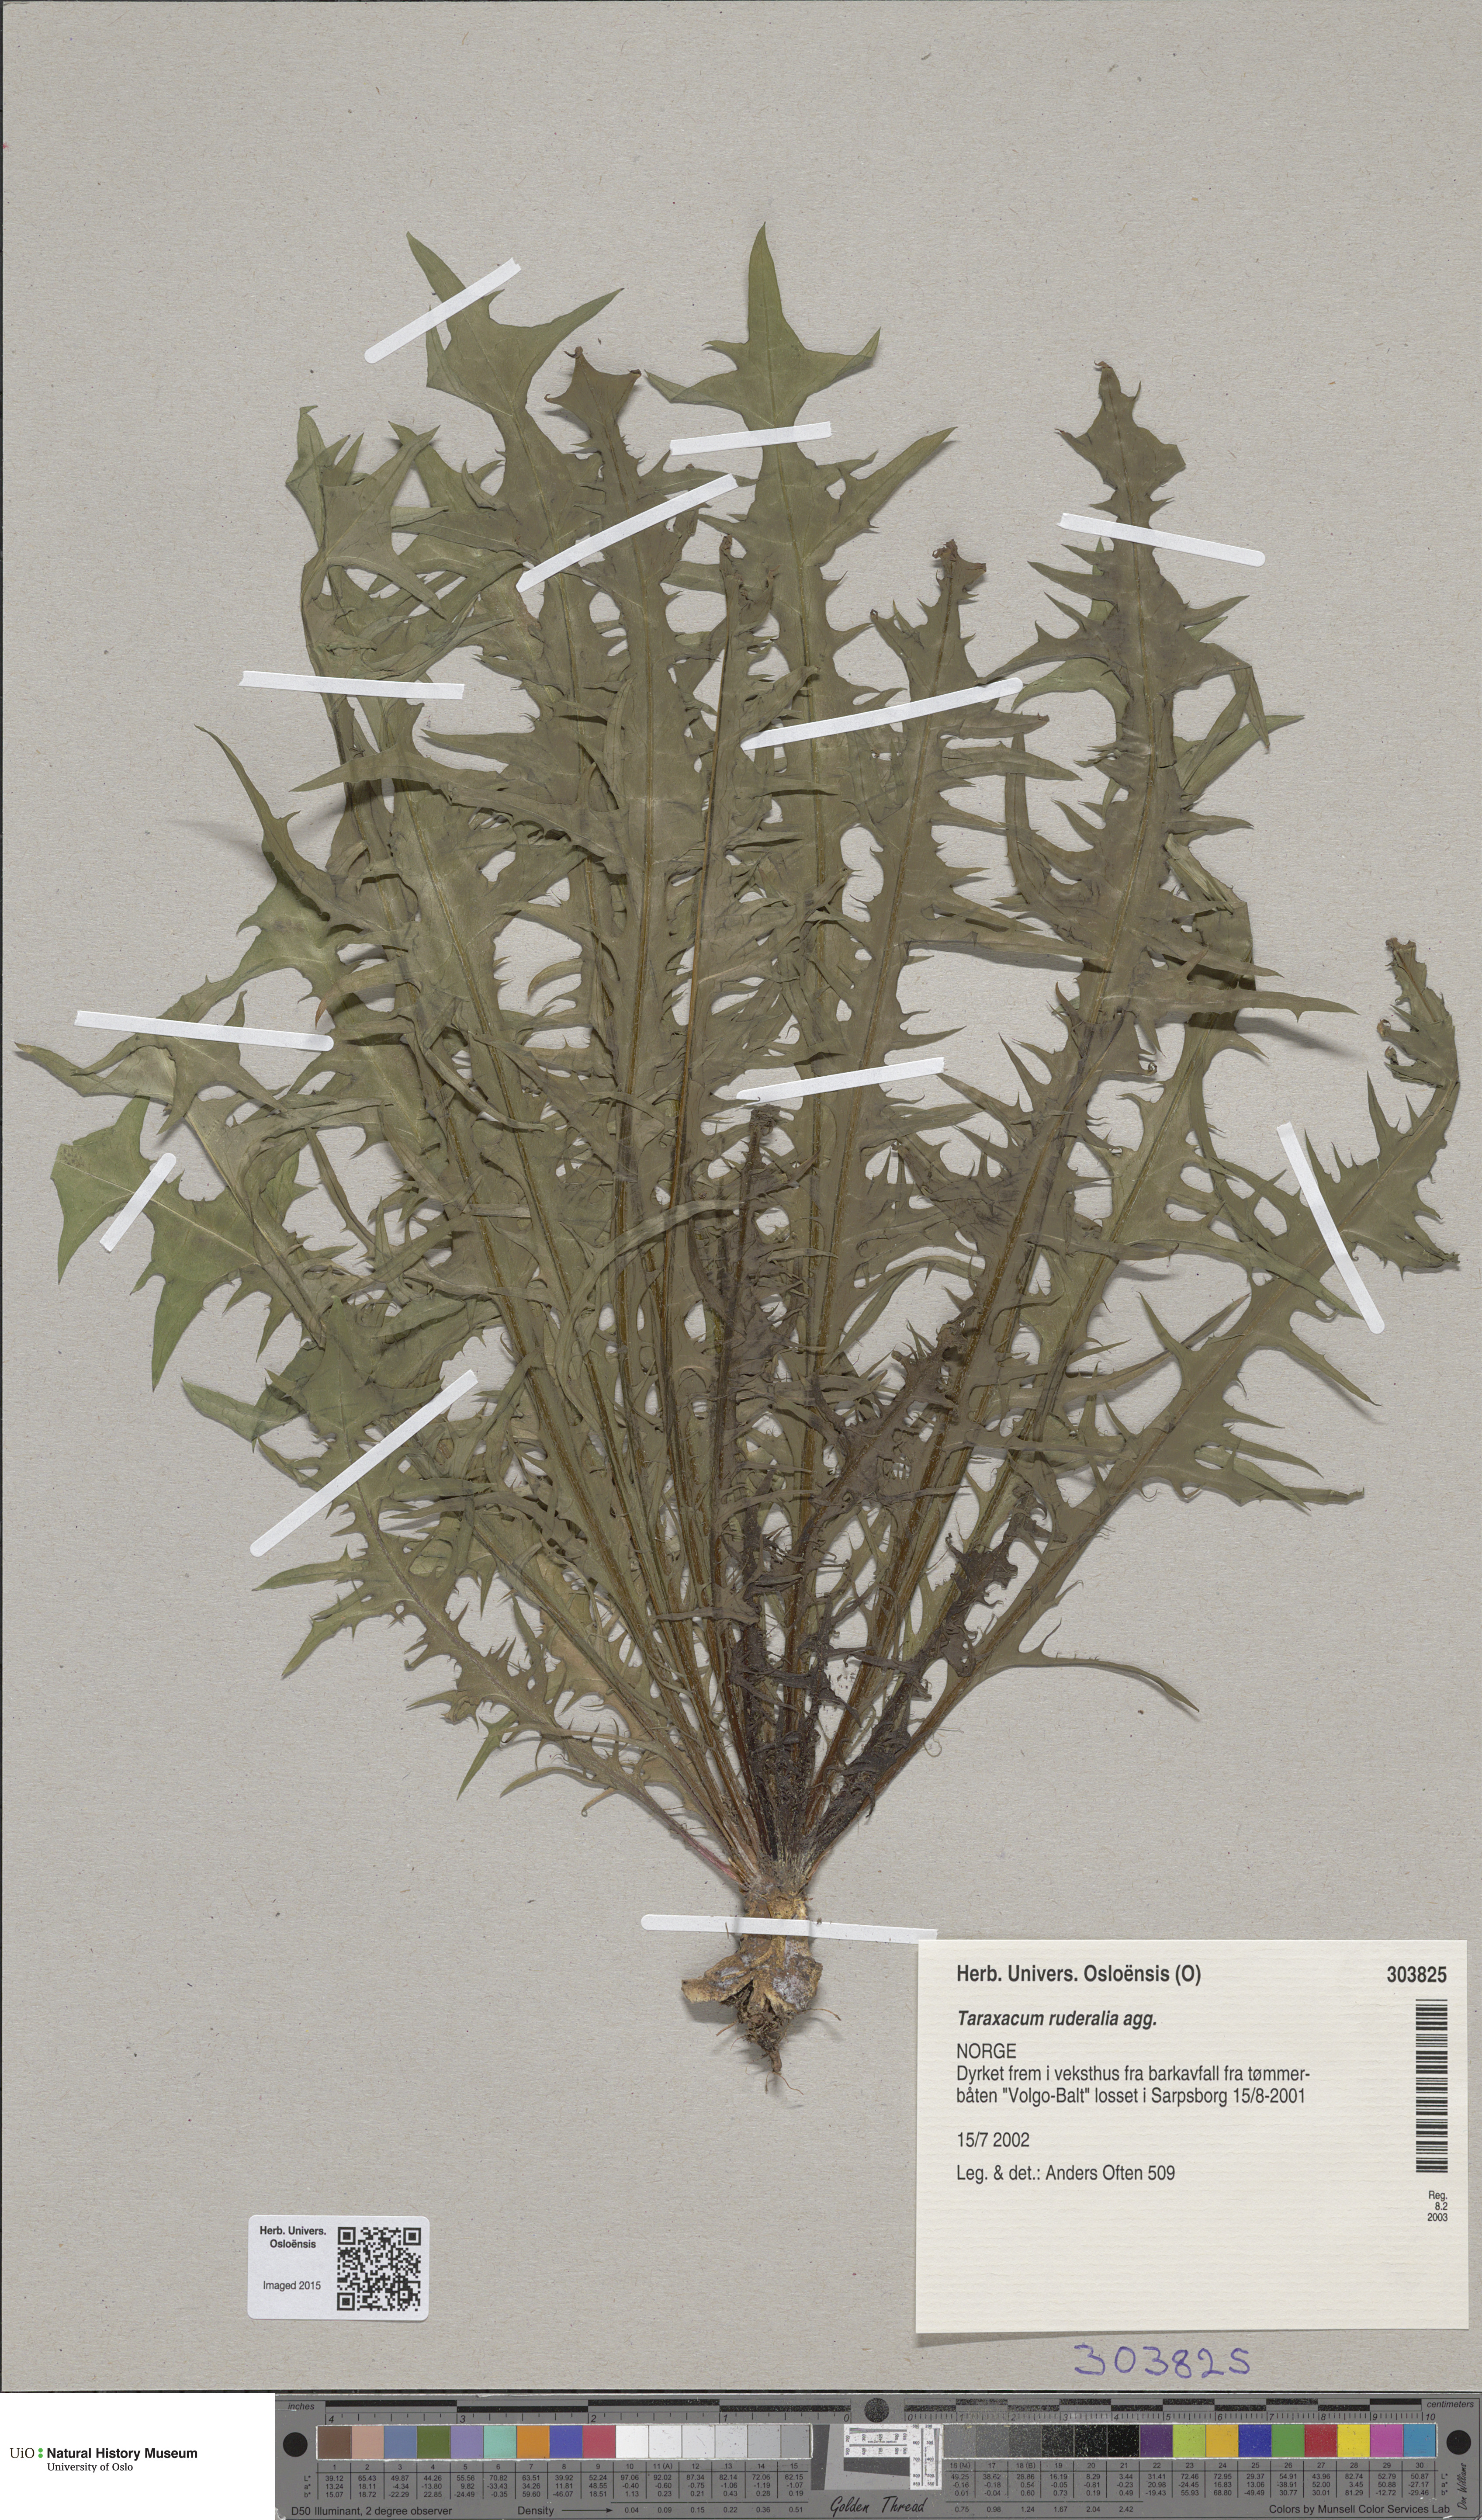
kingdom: Plantae
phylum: Tracheophyta
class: Magnoliopsida
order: Asterales
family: Asteraceae
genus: Taraxacum
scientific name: Taraxacum
